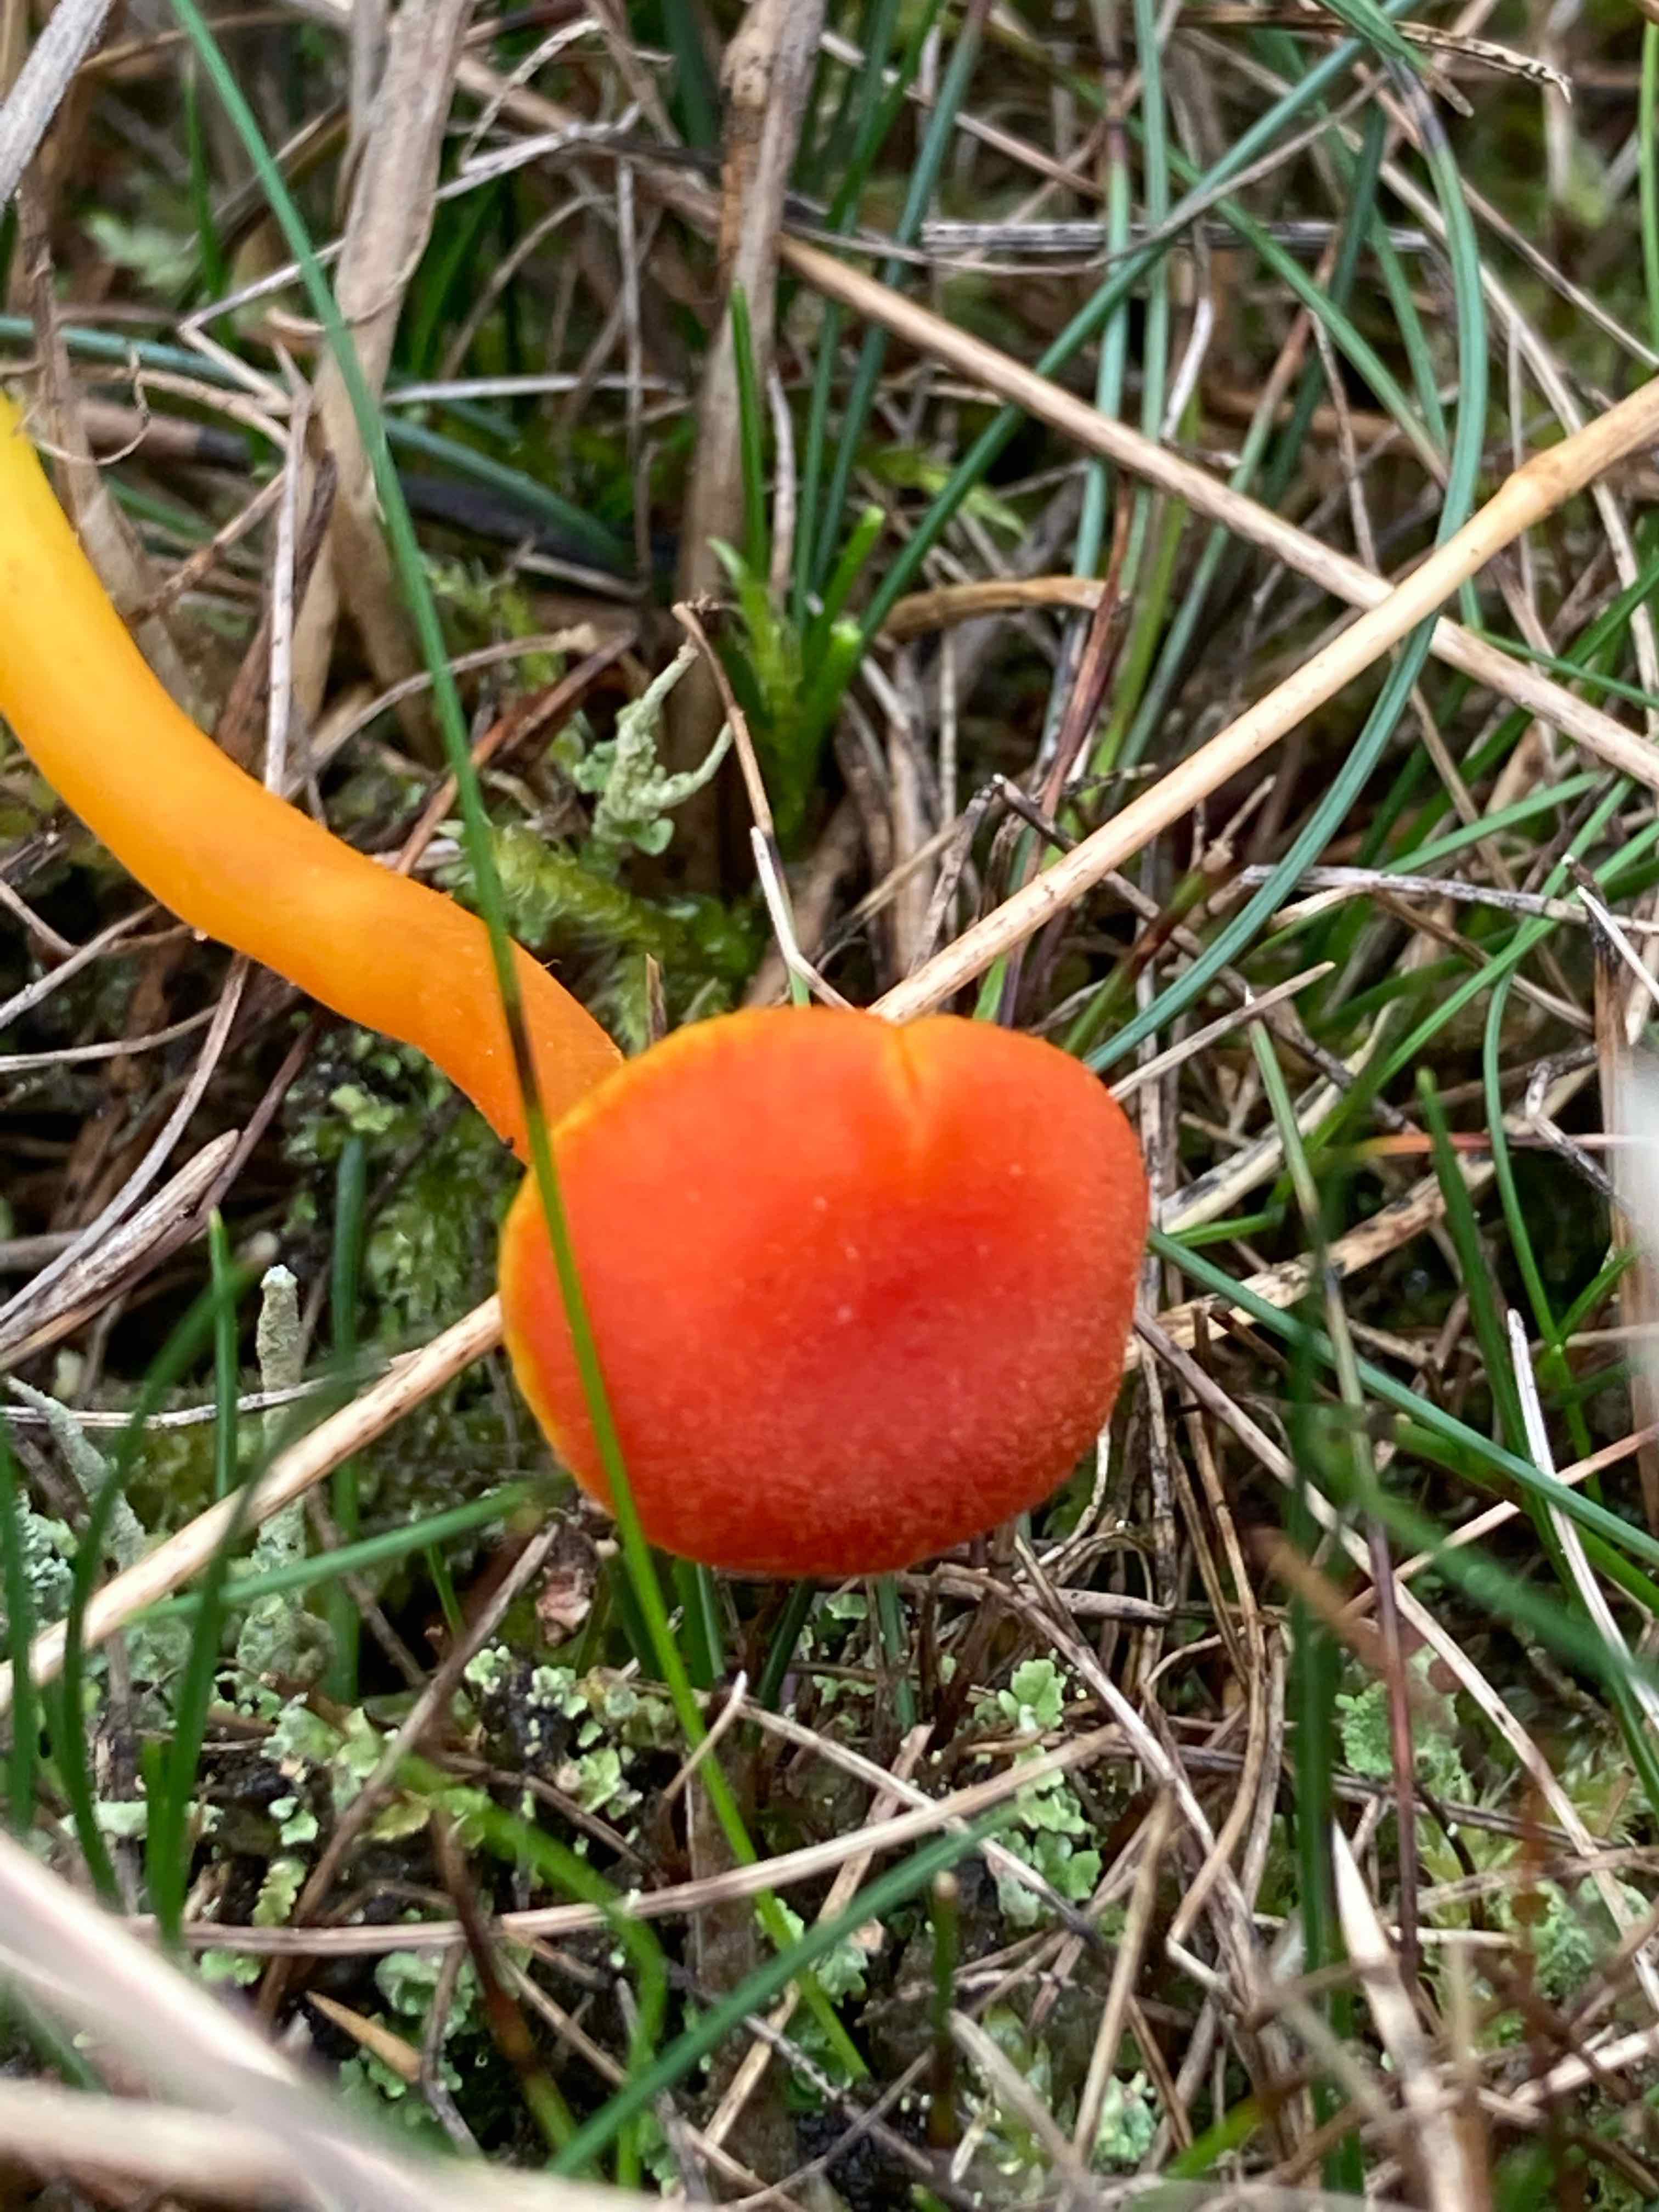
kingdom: Fungi
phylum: Basidiomycota
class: Agaricomycetes
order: Agaricales
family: Hygrophoraceae
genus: Hygrocybe
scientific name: Hygrocybe miniata
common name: mønje-vokshat
